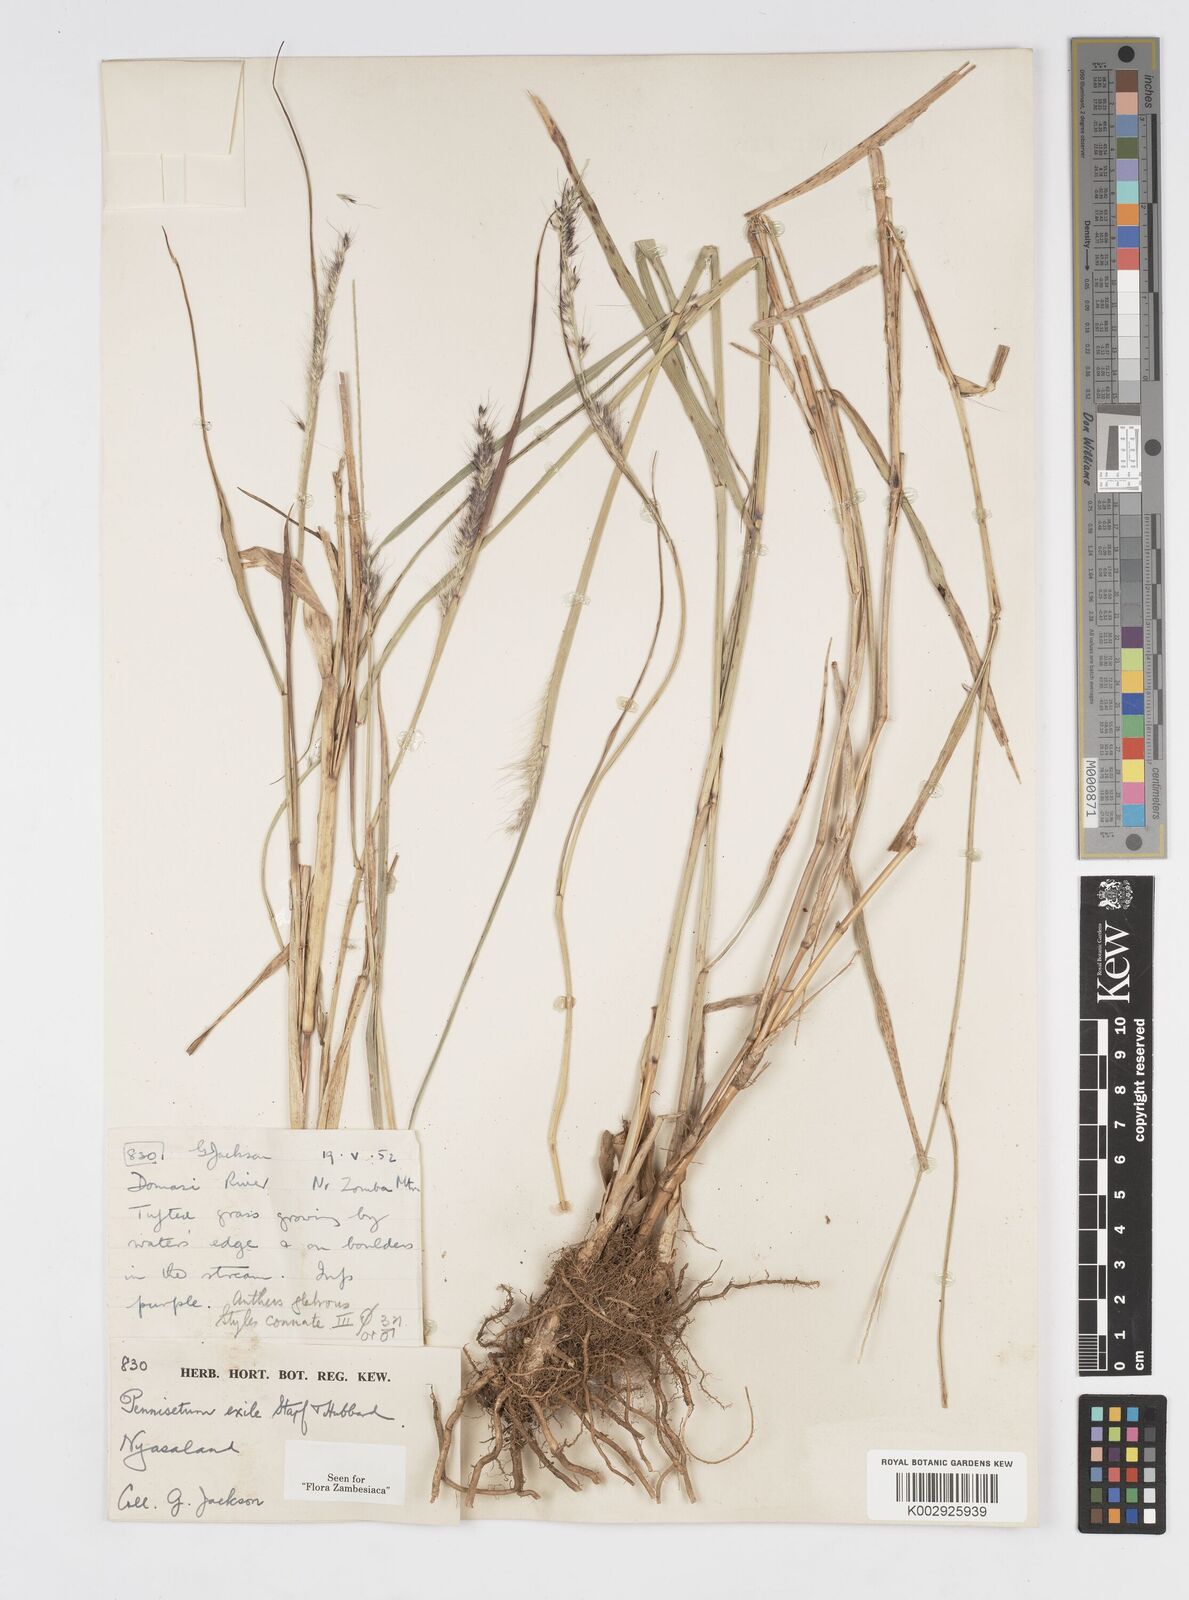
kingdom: Plantae
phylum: Tracheophyta
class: Liliopsida
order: Poales
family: Poaceae
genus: Cenchrus
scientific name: Cenchrus caudatus
